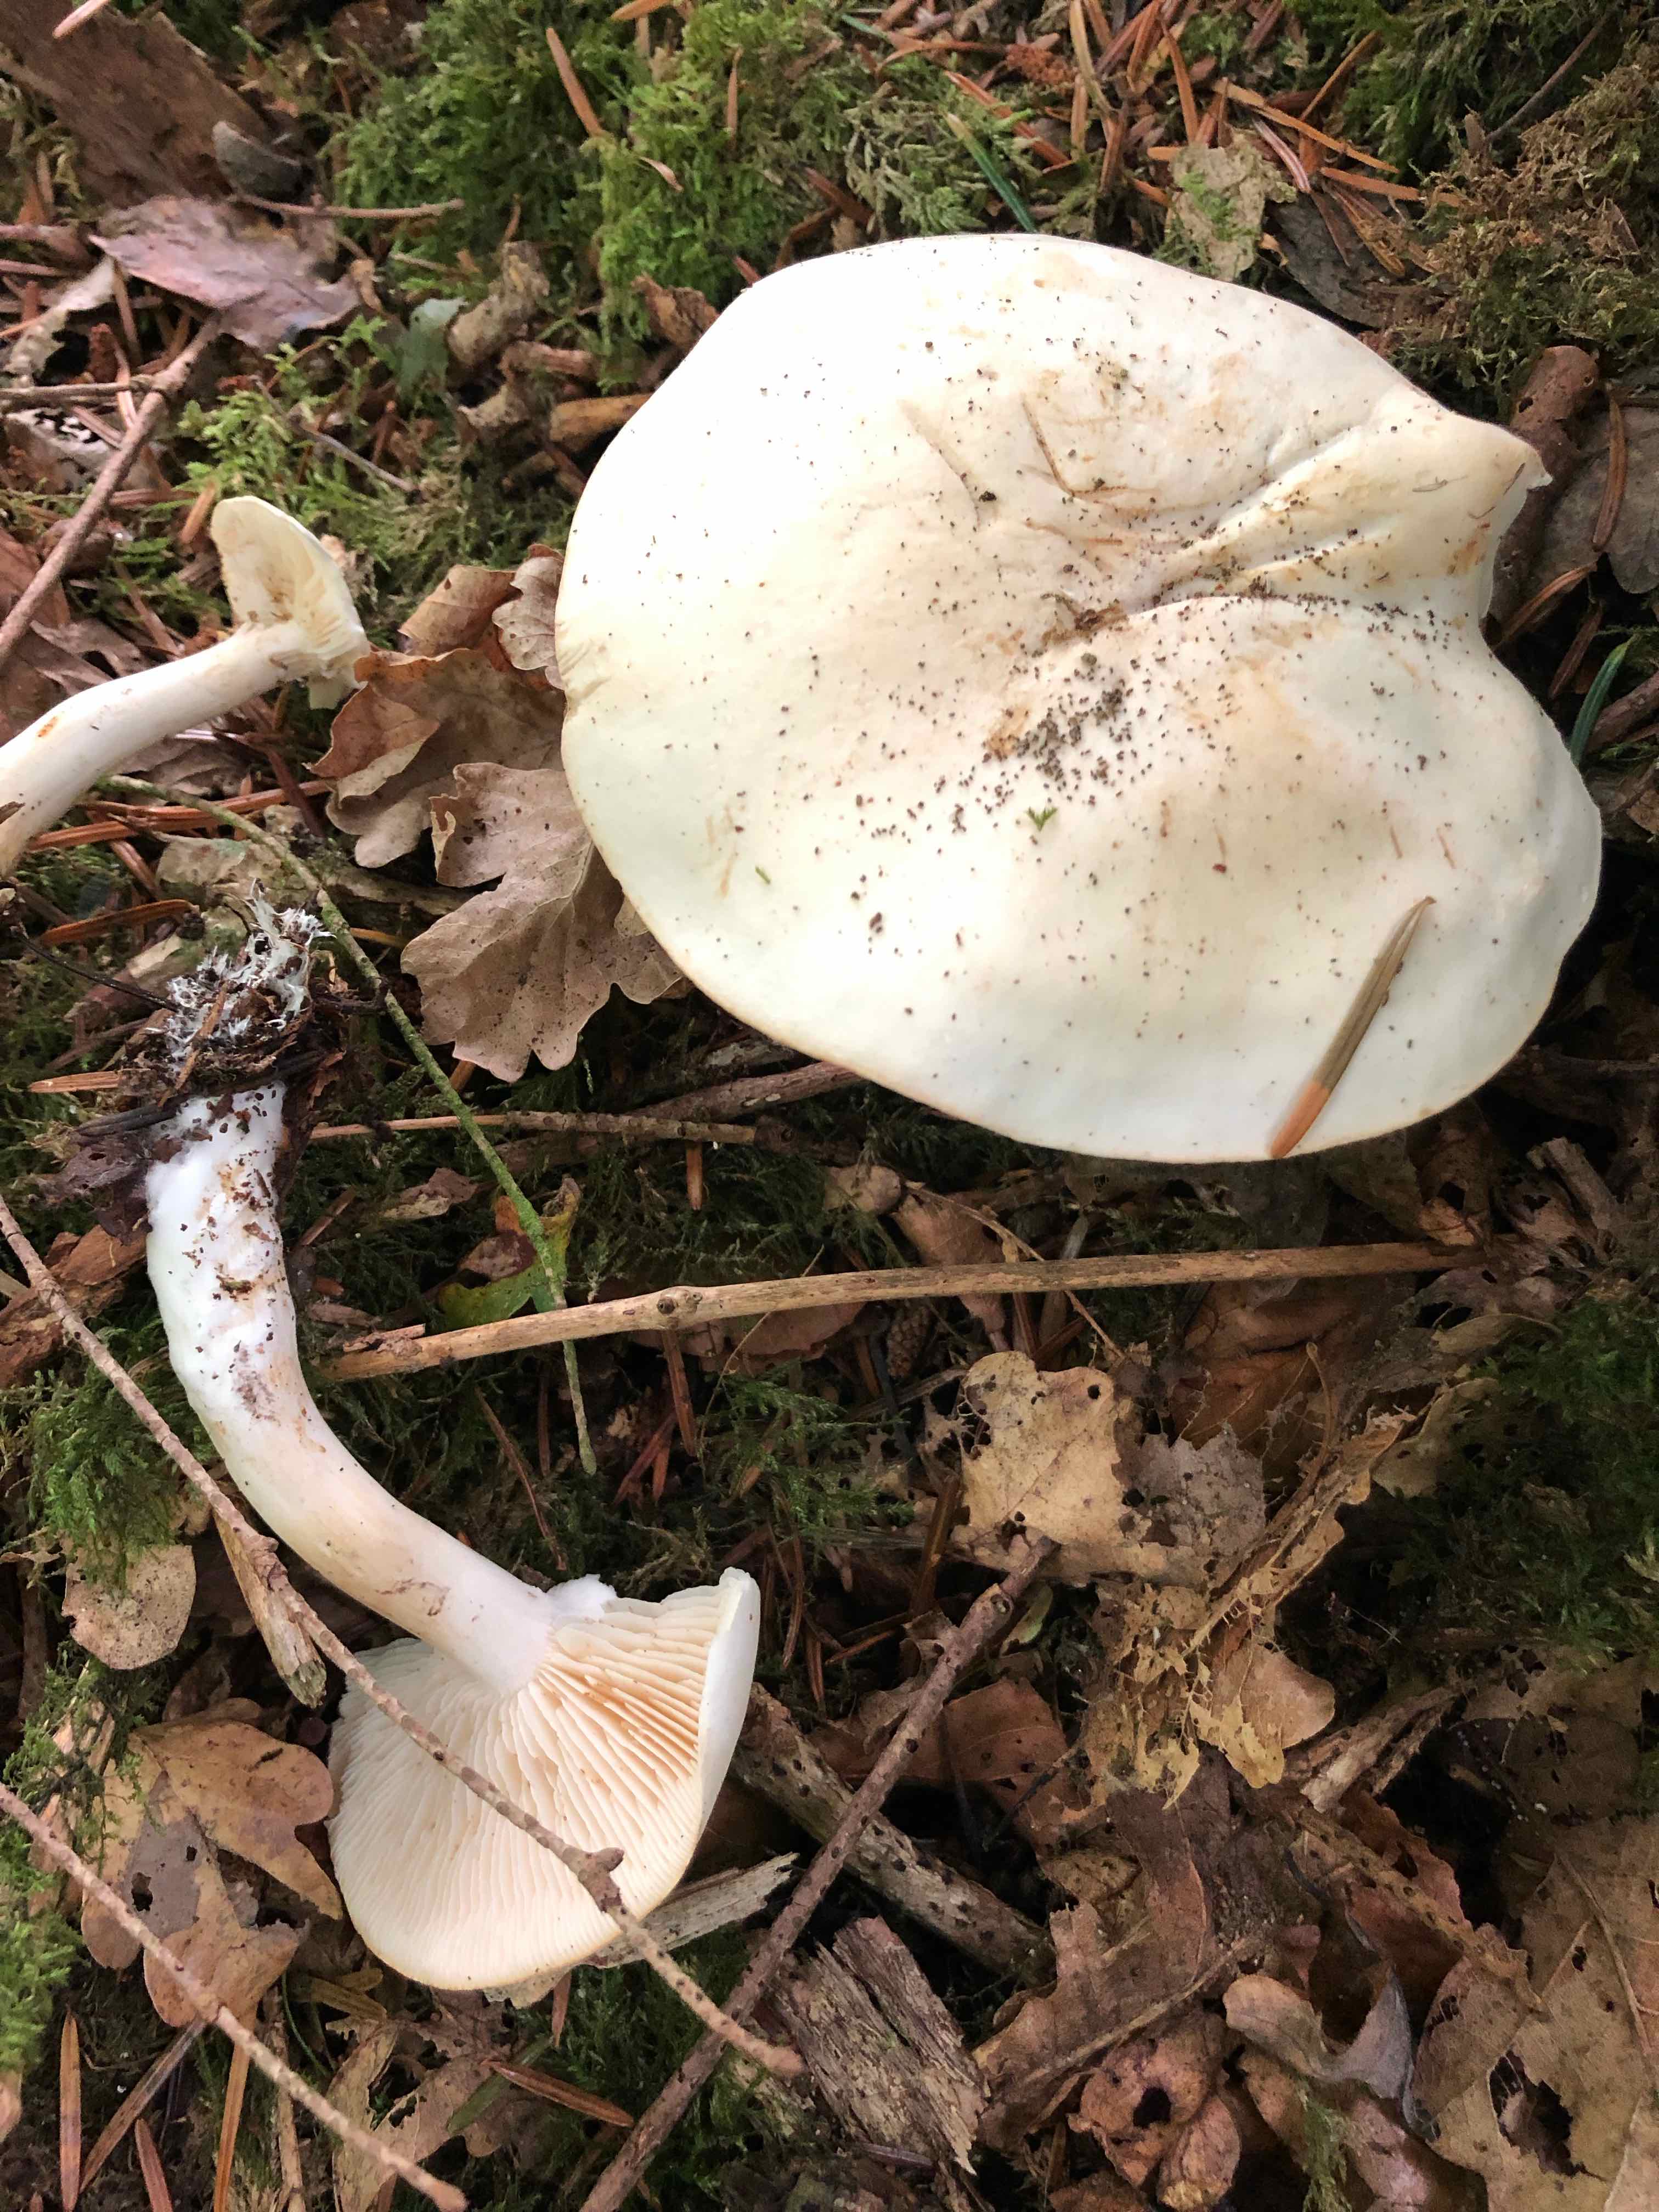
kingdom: Fungi
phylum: Basidiomycota
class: Agaricomycetes
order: Agaricales
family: Tricholomataceae
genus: Tricholoma
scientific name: Tricholoma
